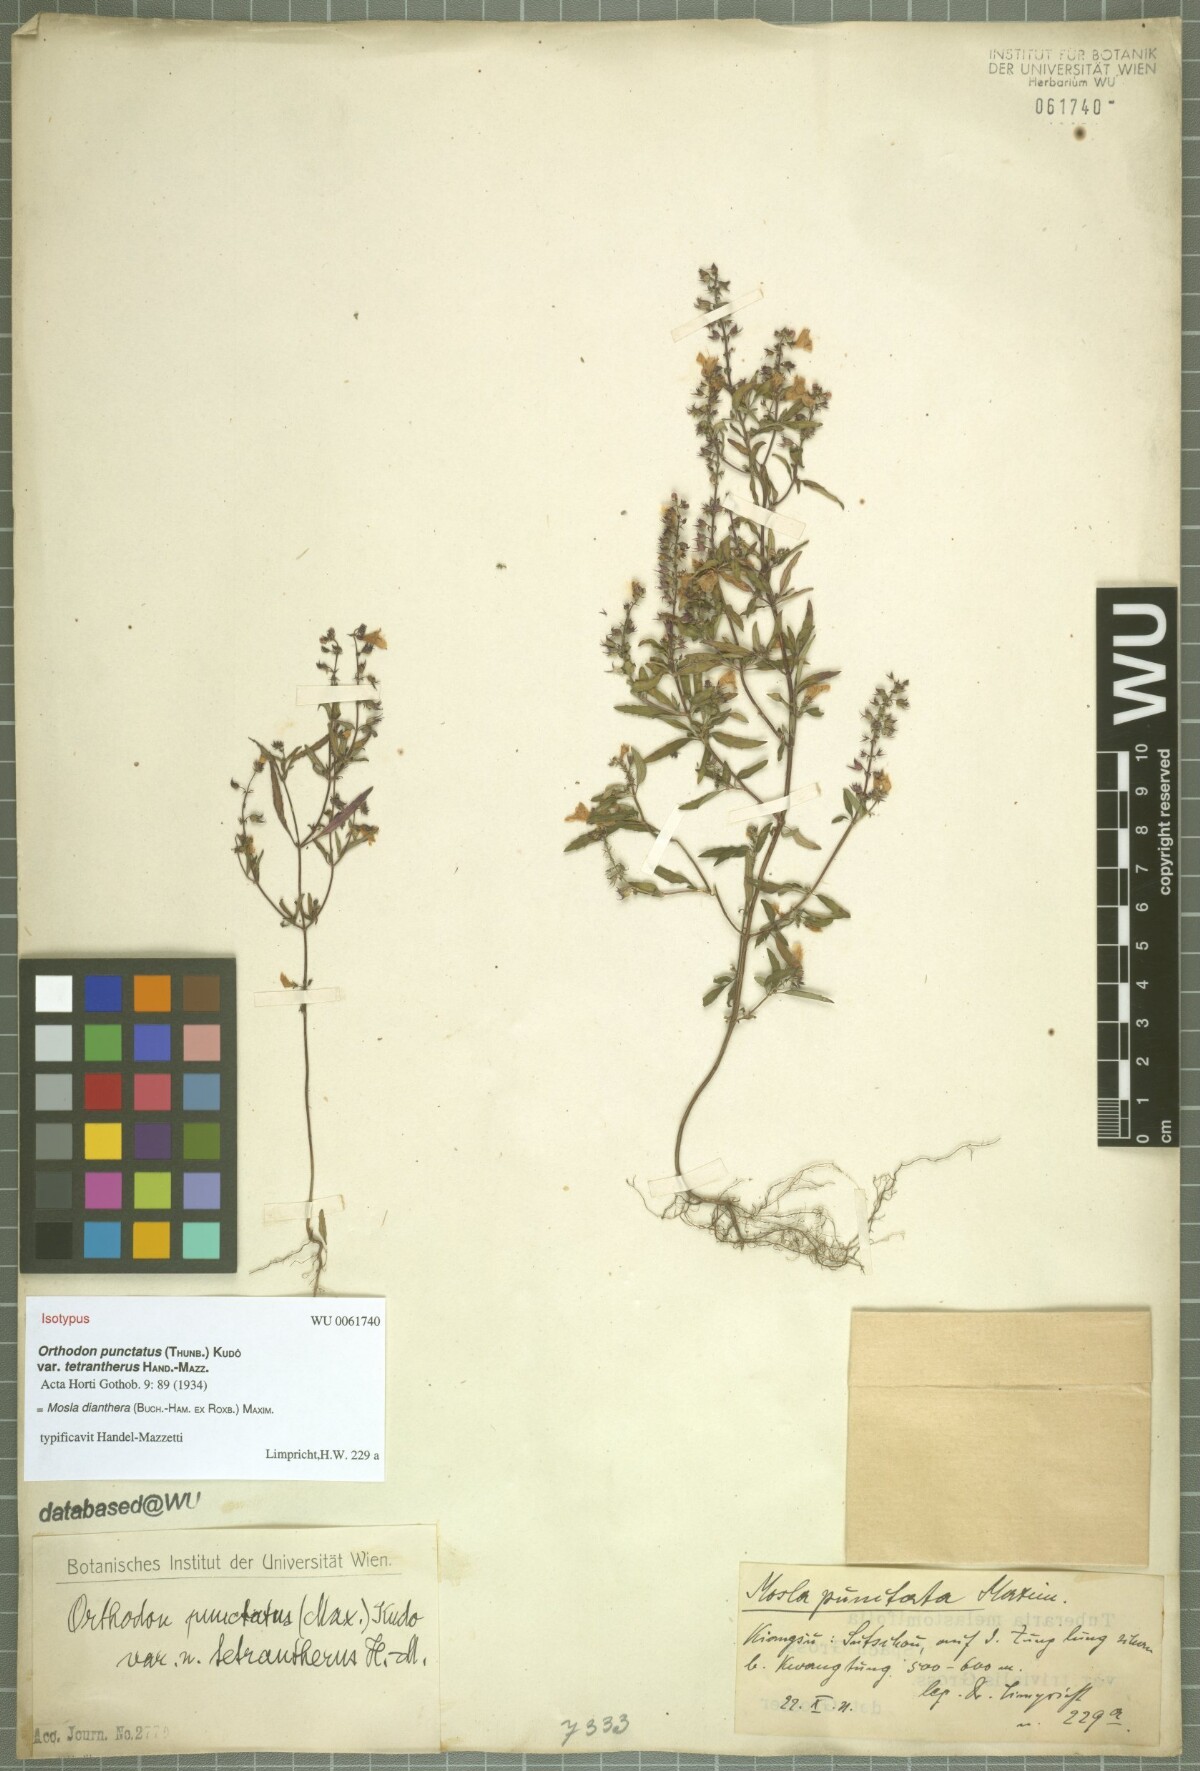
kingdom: Plantae
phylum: Tracheophyta
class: Magnoliopsida
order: Lamiales
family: Lamiaceae
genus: Mosla
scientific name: Mosla dianthera
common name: Miniature beefsteakplant
